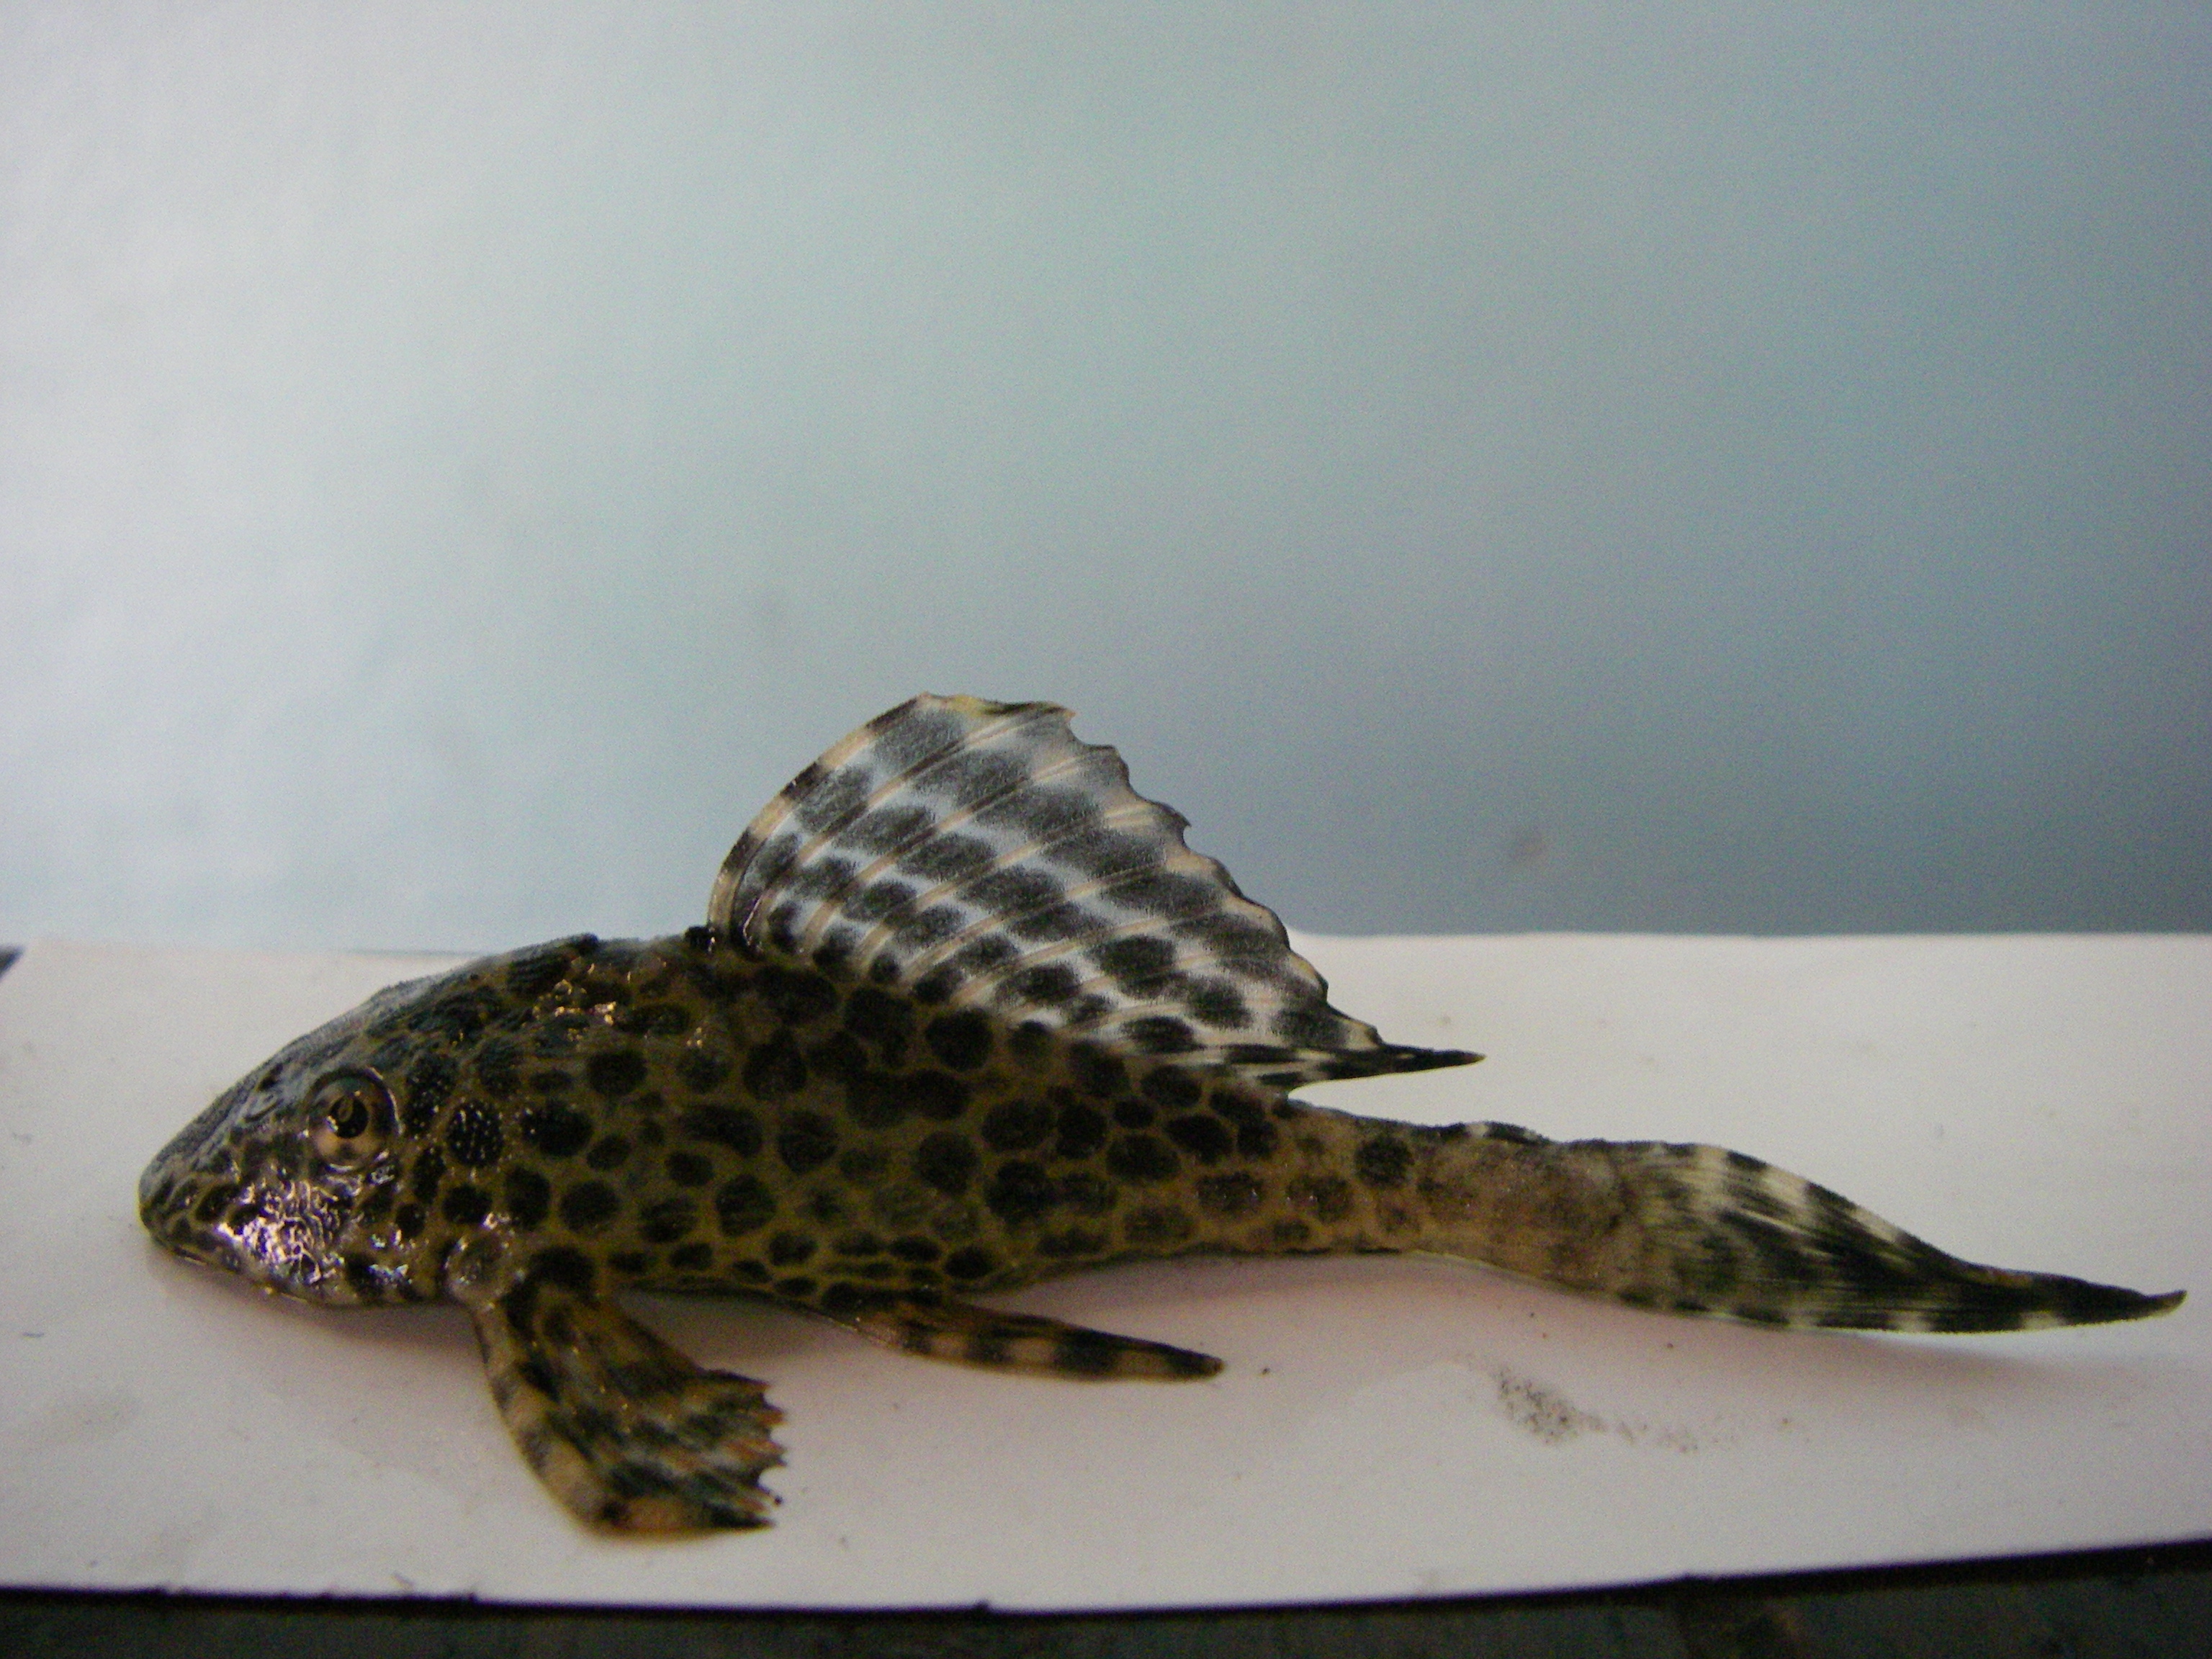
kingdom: Animalia
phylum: Chordata
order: Siluriformes
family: Loricariidae
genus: Pterygoplichthys
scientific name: Pterygoplichthys
